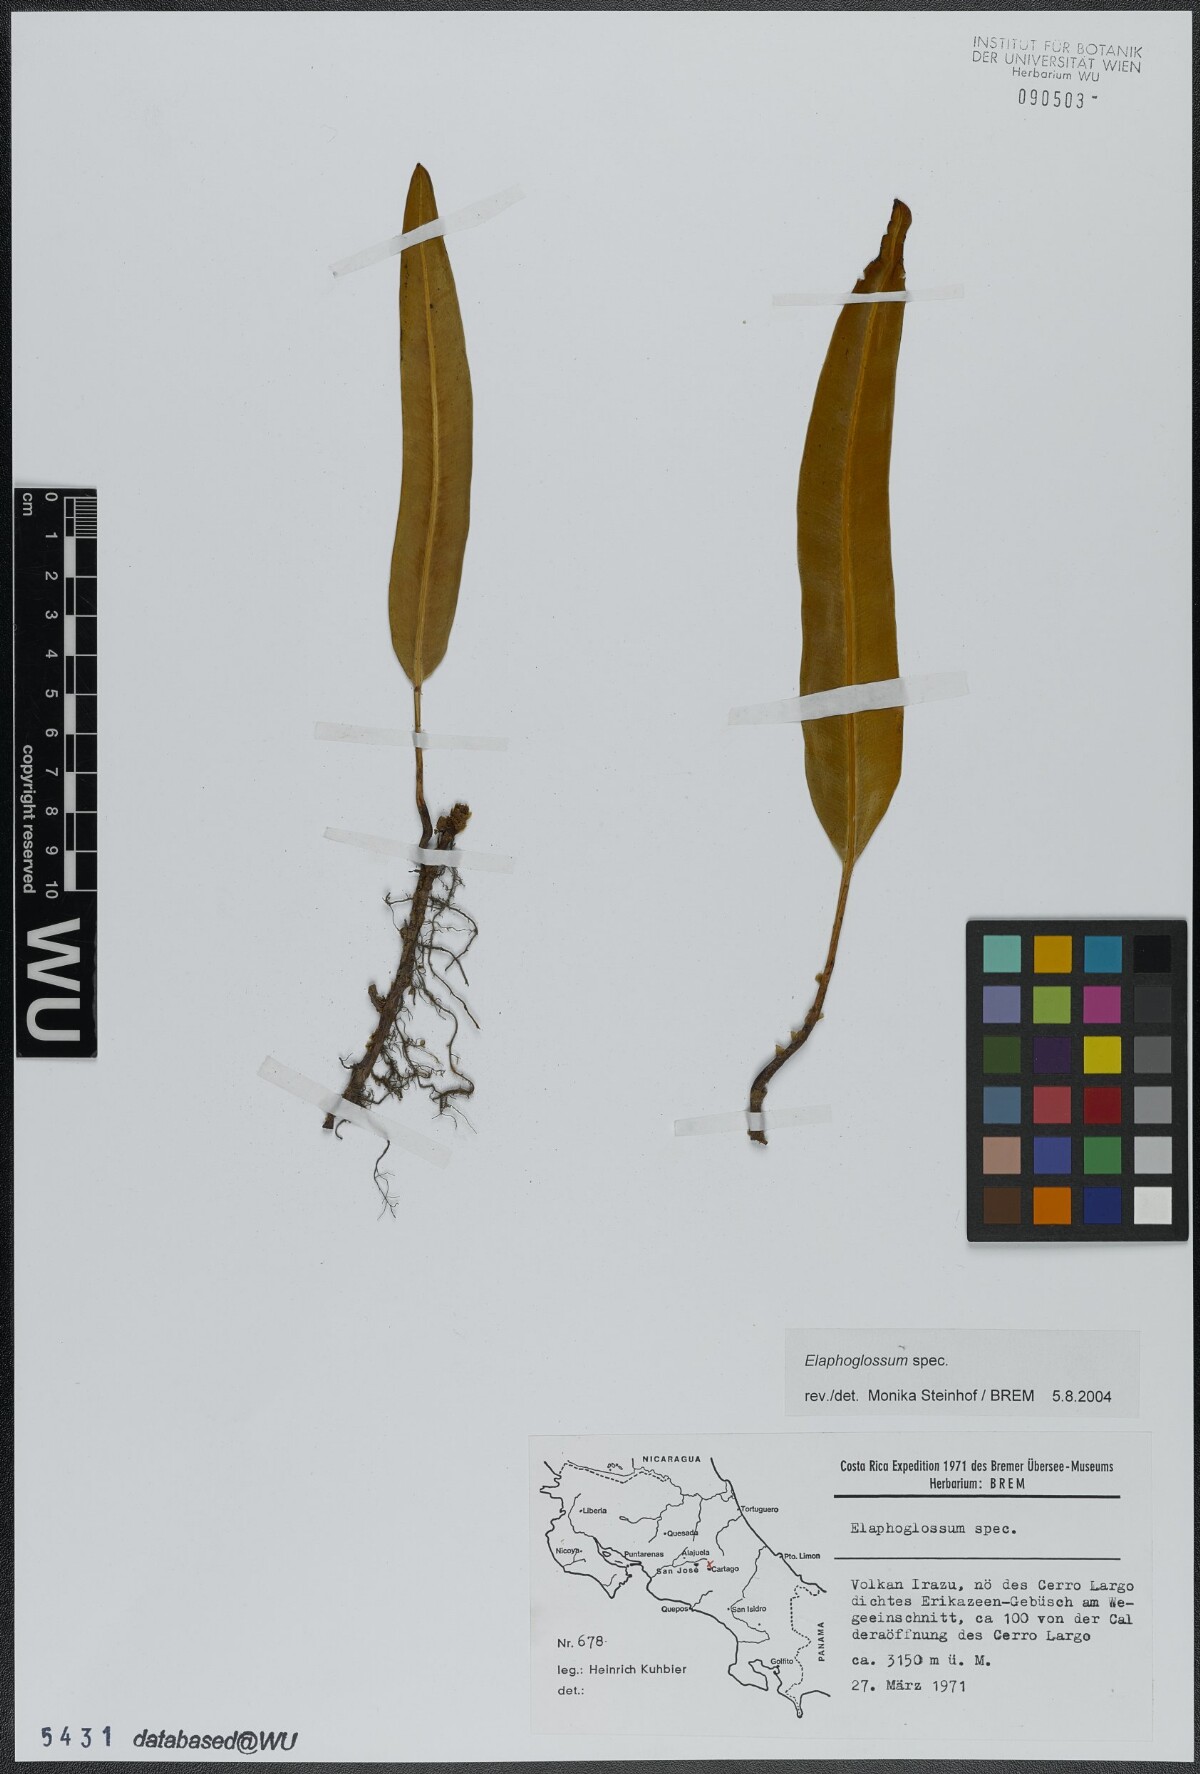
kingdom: Plantae
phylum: Tracheophyta
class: Polypodiopsida
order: Polypodiales
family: Dryopteridaceae
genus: Elaphoglossum
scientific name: Elaphoglossum conspersum
